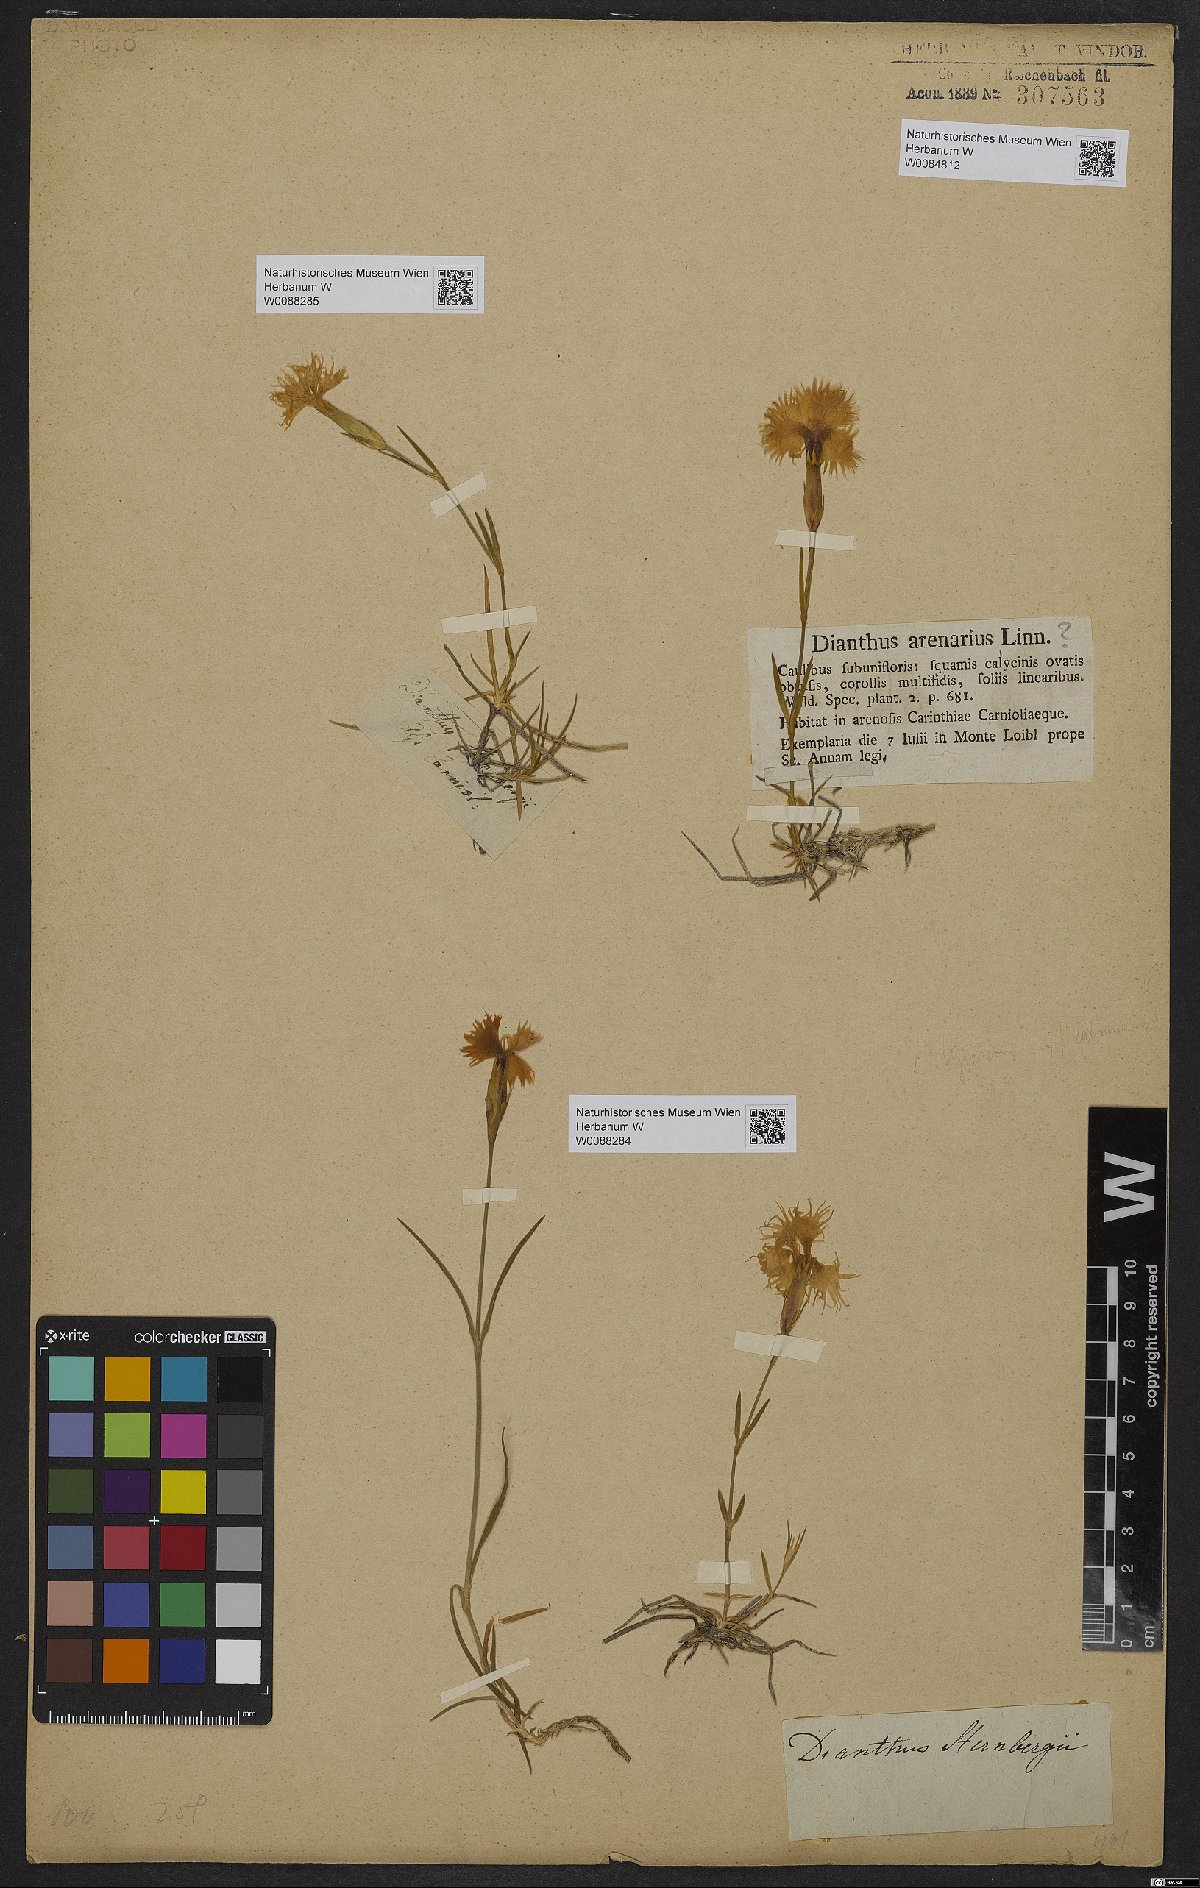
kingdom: Plantae
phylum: Tracheophyta
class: Magnoliopsida
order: Caryophyllales
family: Caryophyllaceae
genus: Dianthus
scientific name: Dianthus monspessulanus
